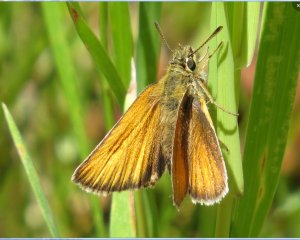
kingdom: Animalia
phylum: Arthropoda
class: Insecta
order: Lepidoptera
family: Hesperiidae
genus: Thymelicus
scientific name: Thymelicus lineola
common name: European Skipper
